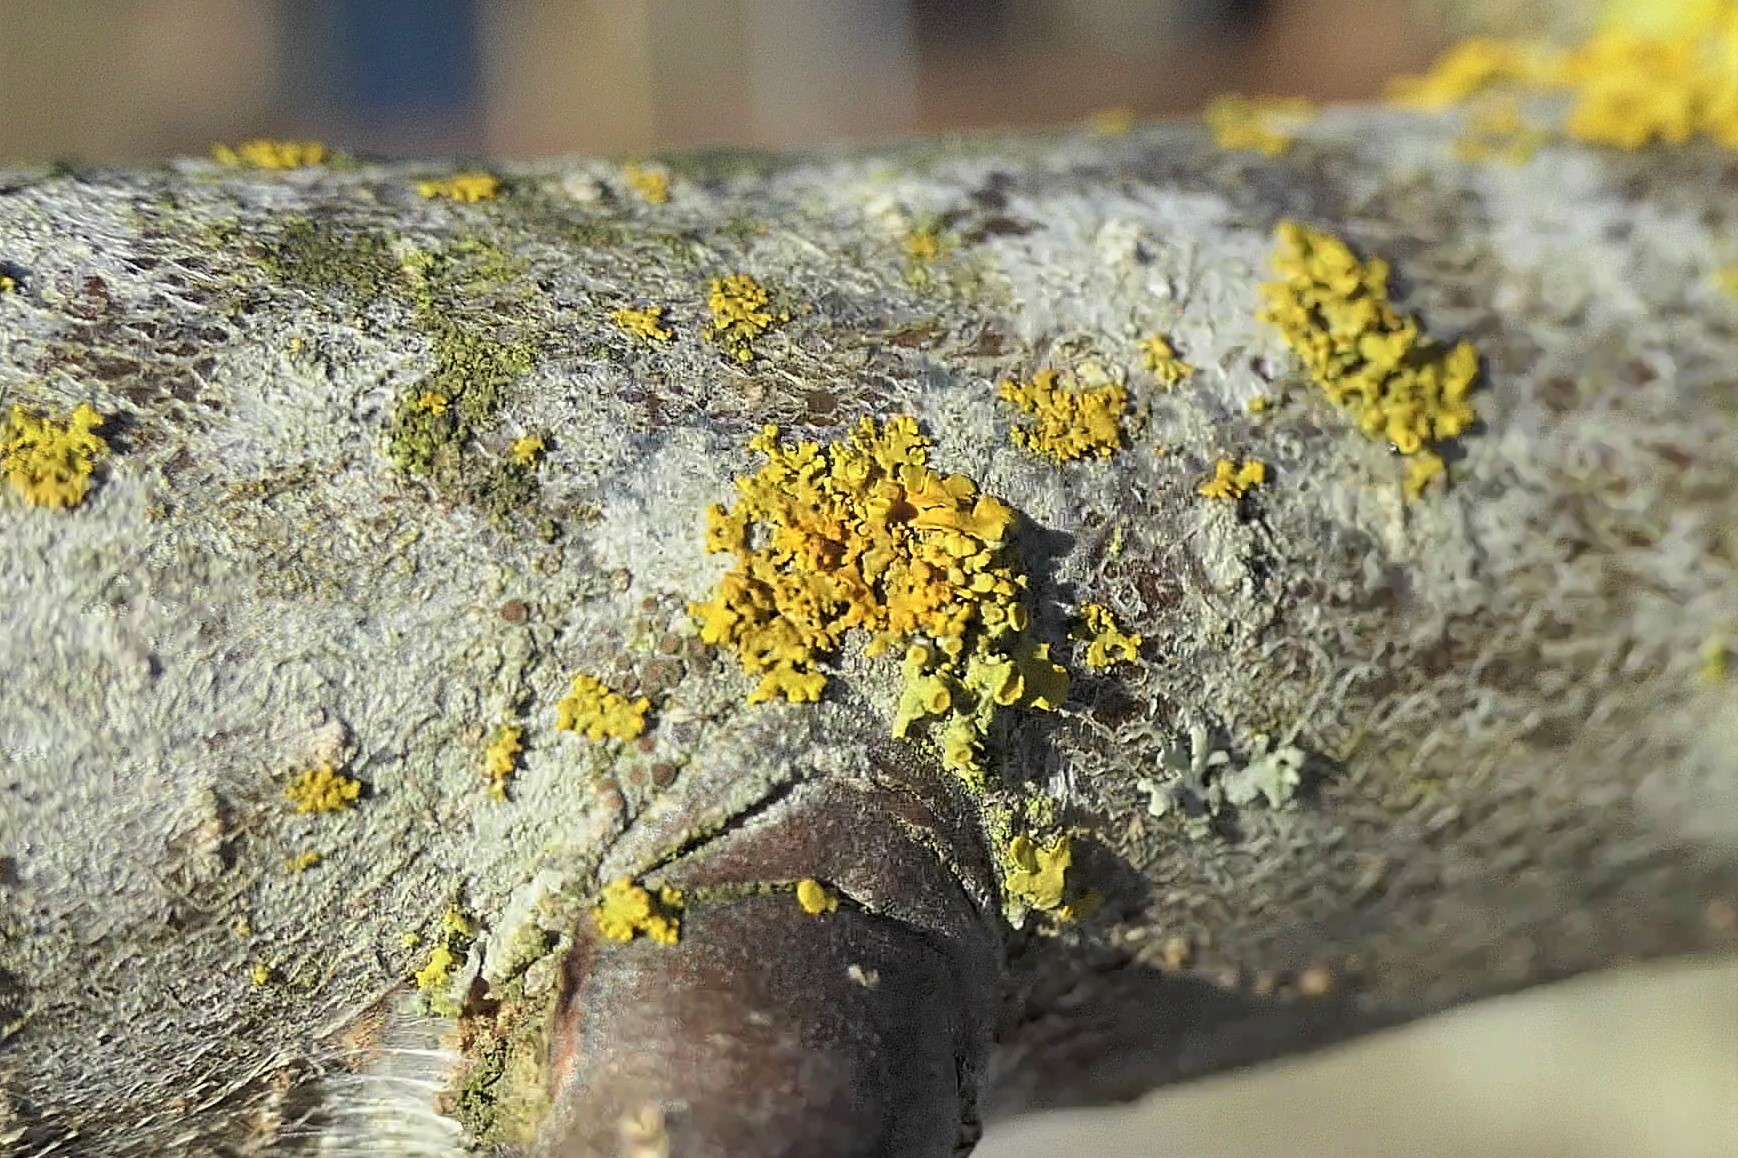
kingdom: Fungi
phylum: Ascomycota
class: Lecanoromycetes
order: Teloschistales
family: Teloschistaceae
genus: Polycauliona
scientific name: Polycauliona polycarpa
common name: mangefrugtet orangelav
